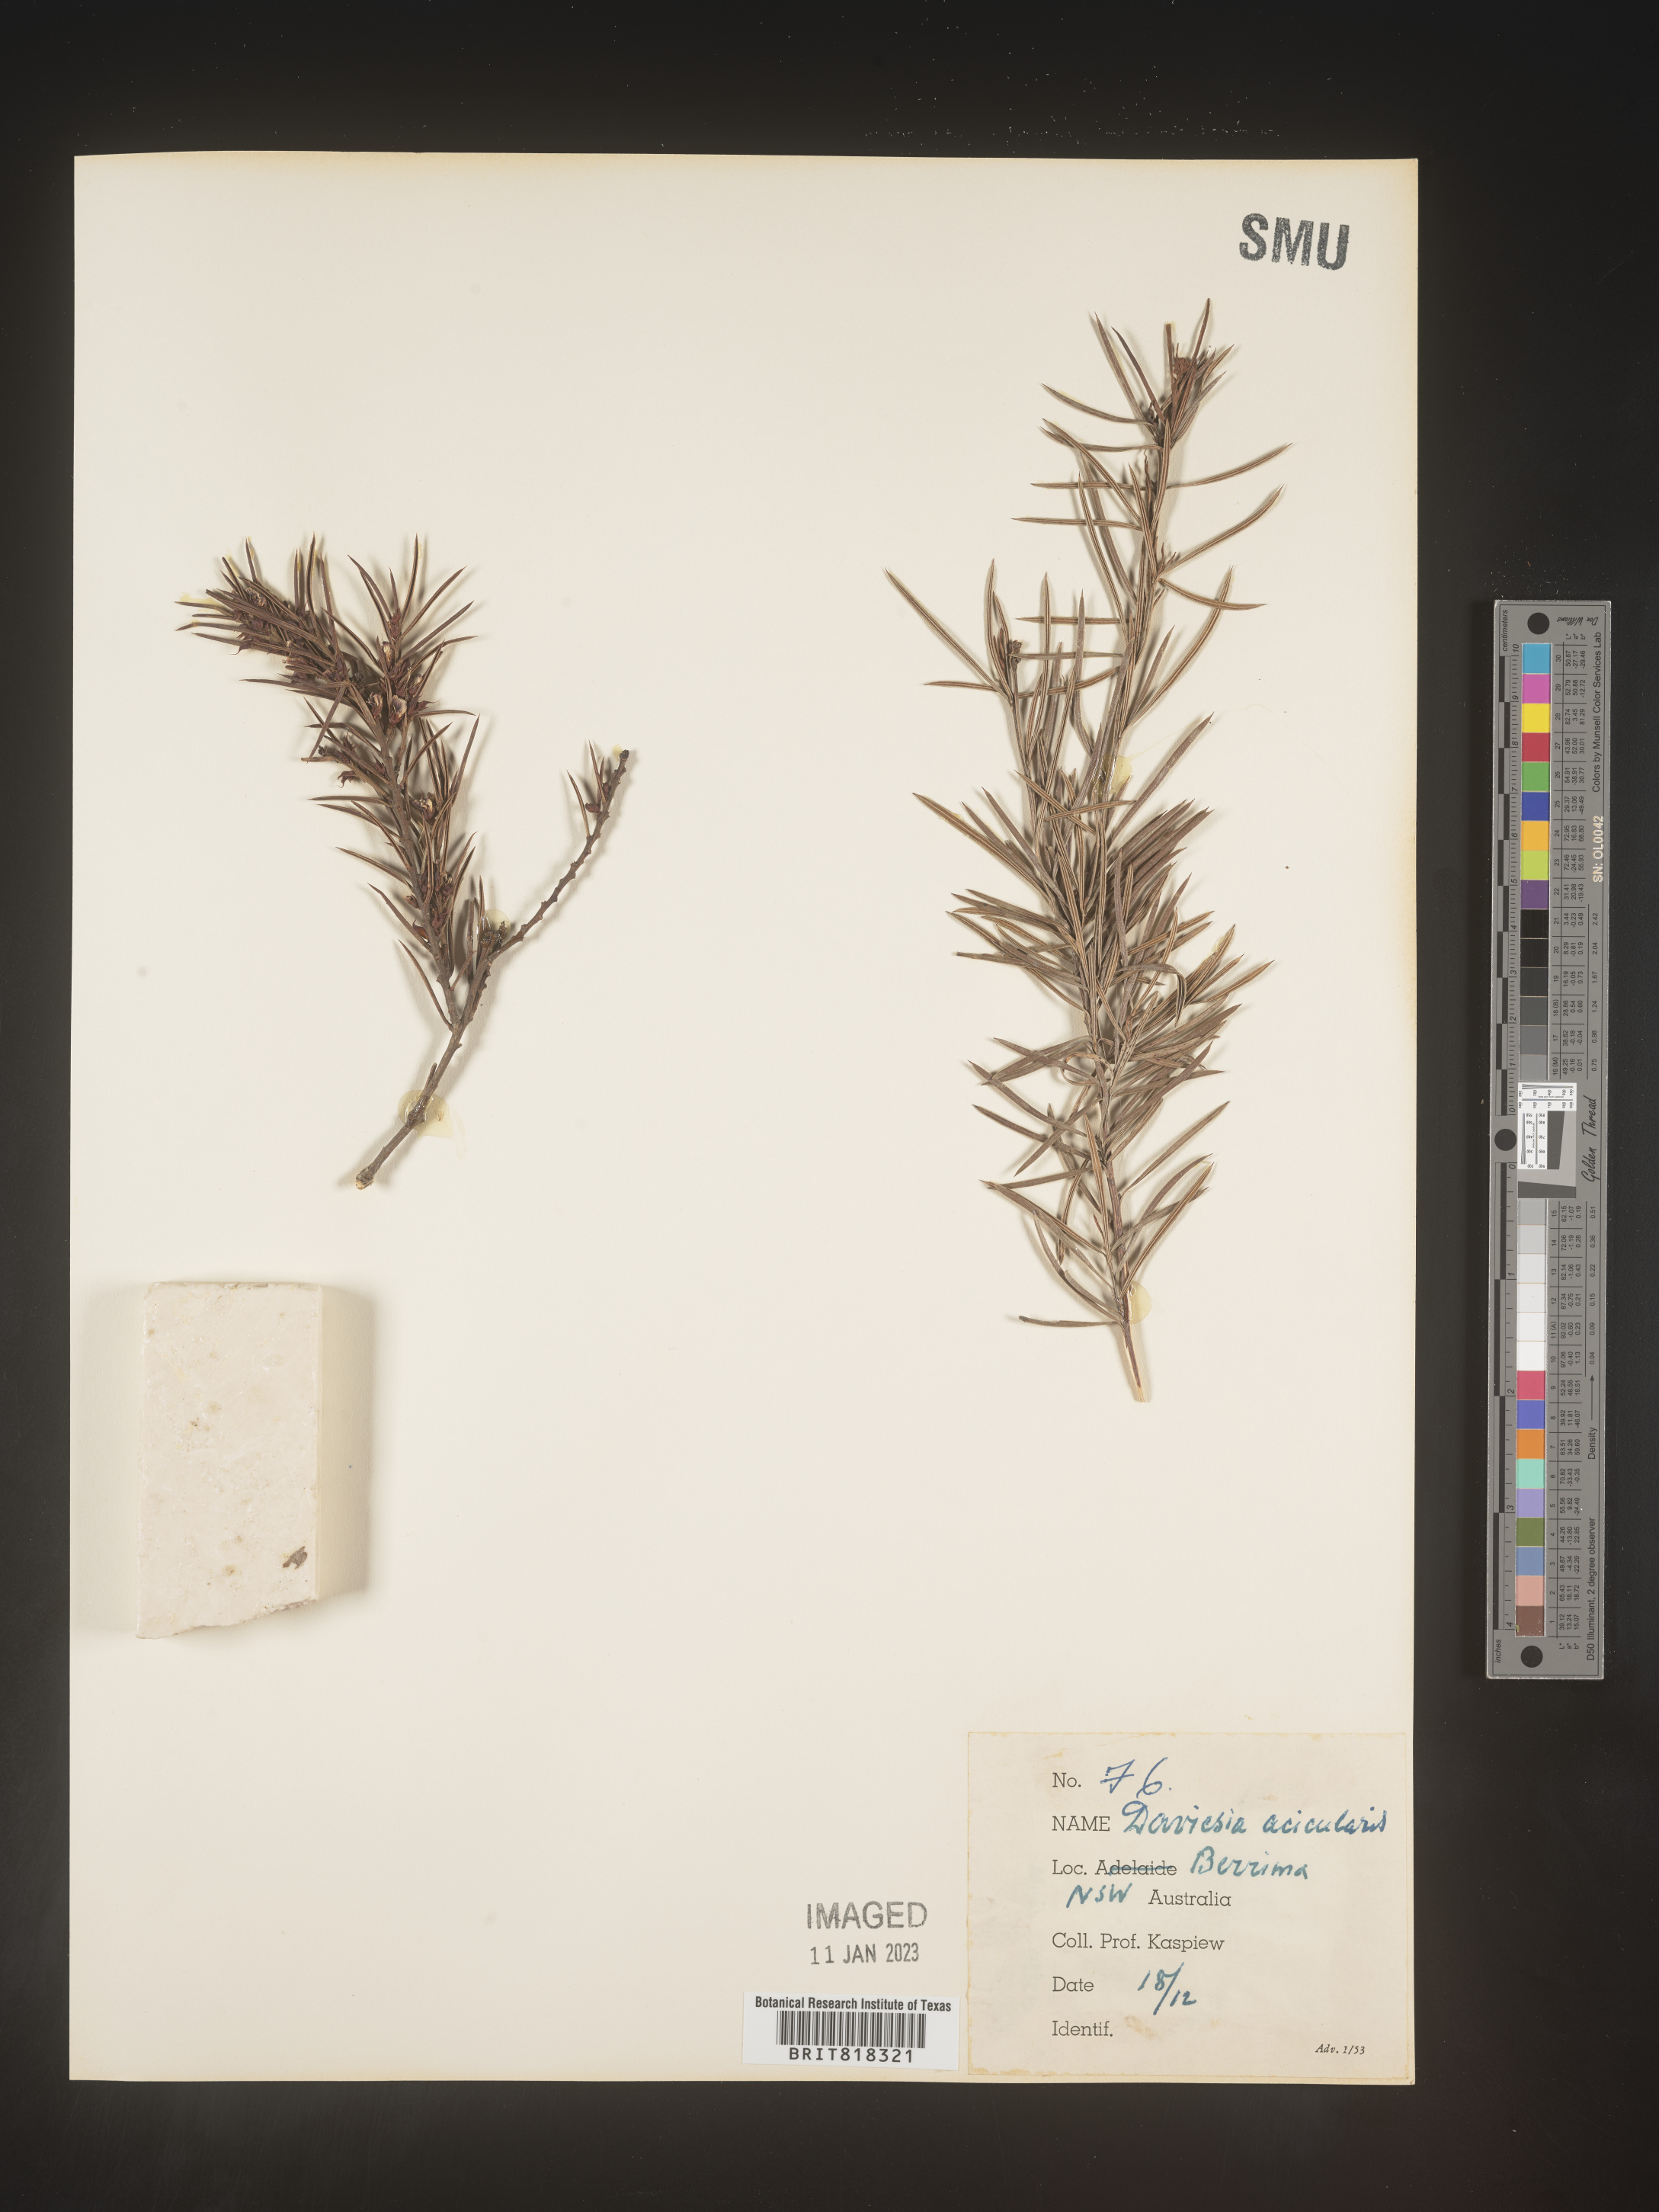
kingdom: Plantae
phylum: Tracheophyta
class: Magnoliopsida
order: Fabales
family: Fabaceae
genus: Daviesia
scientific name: Daviesia
